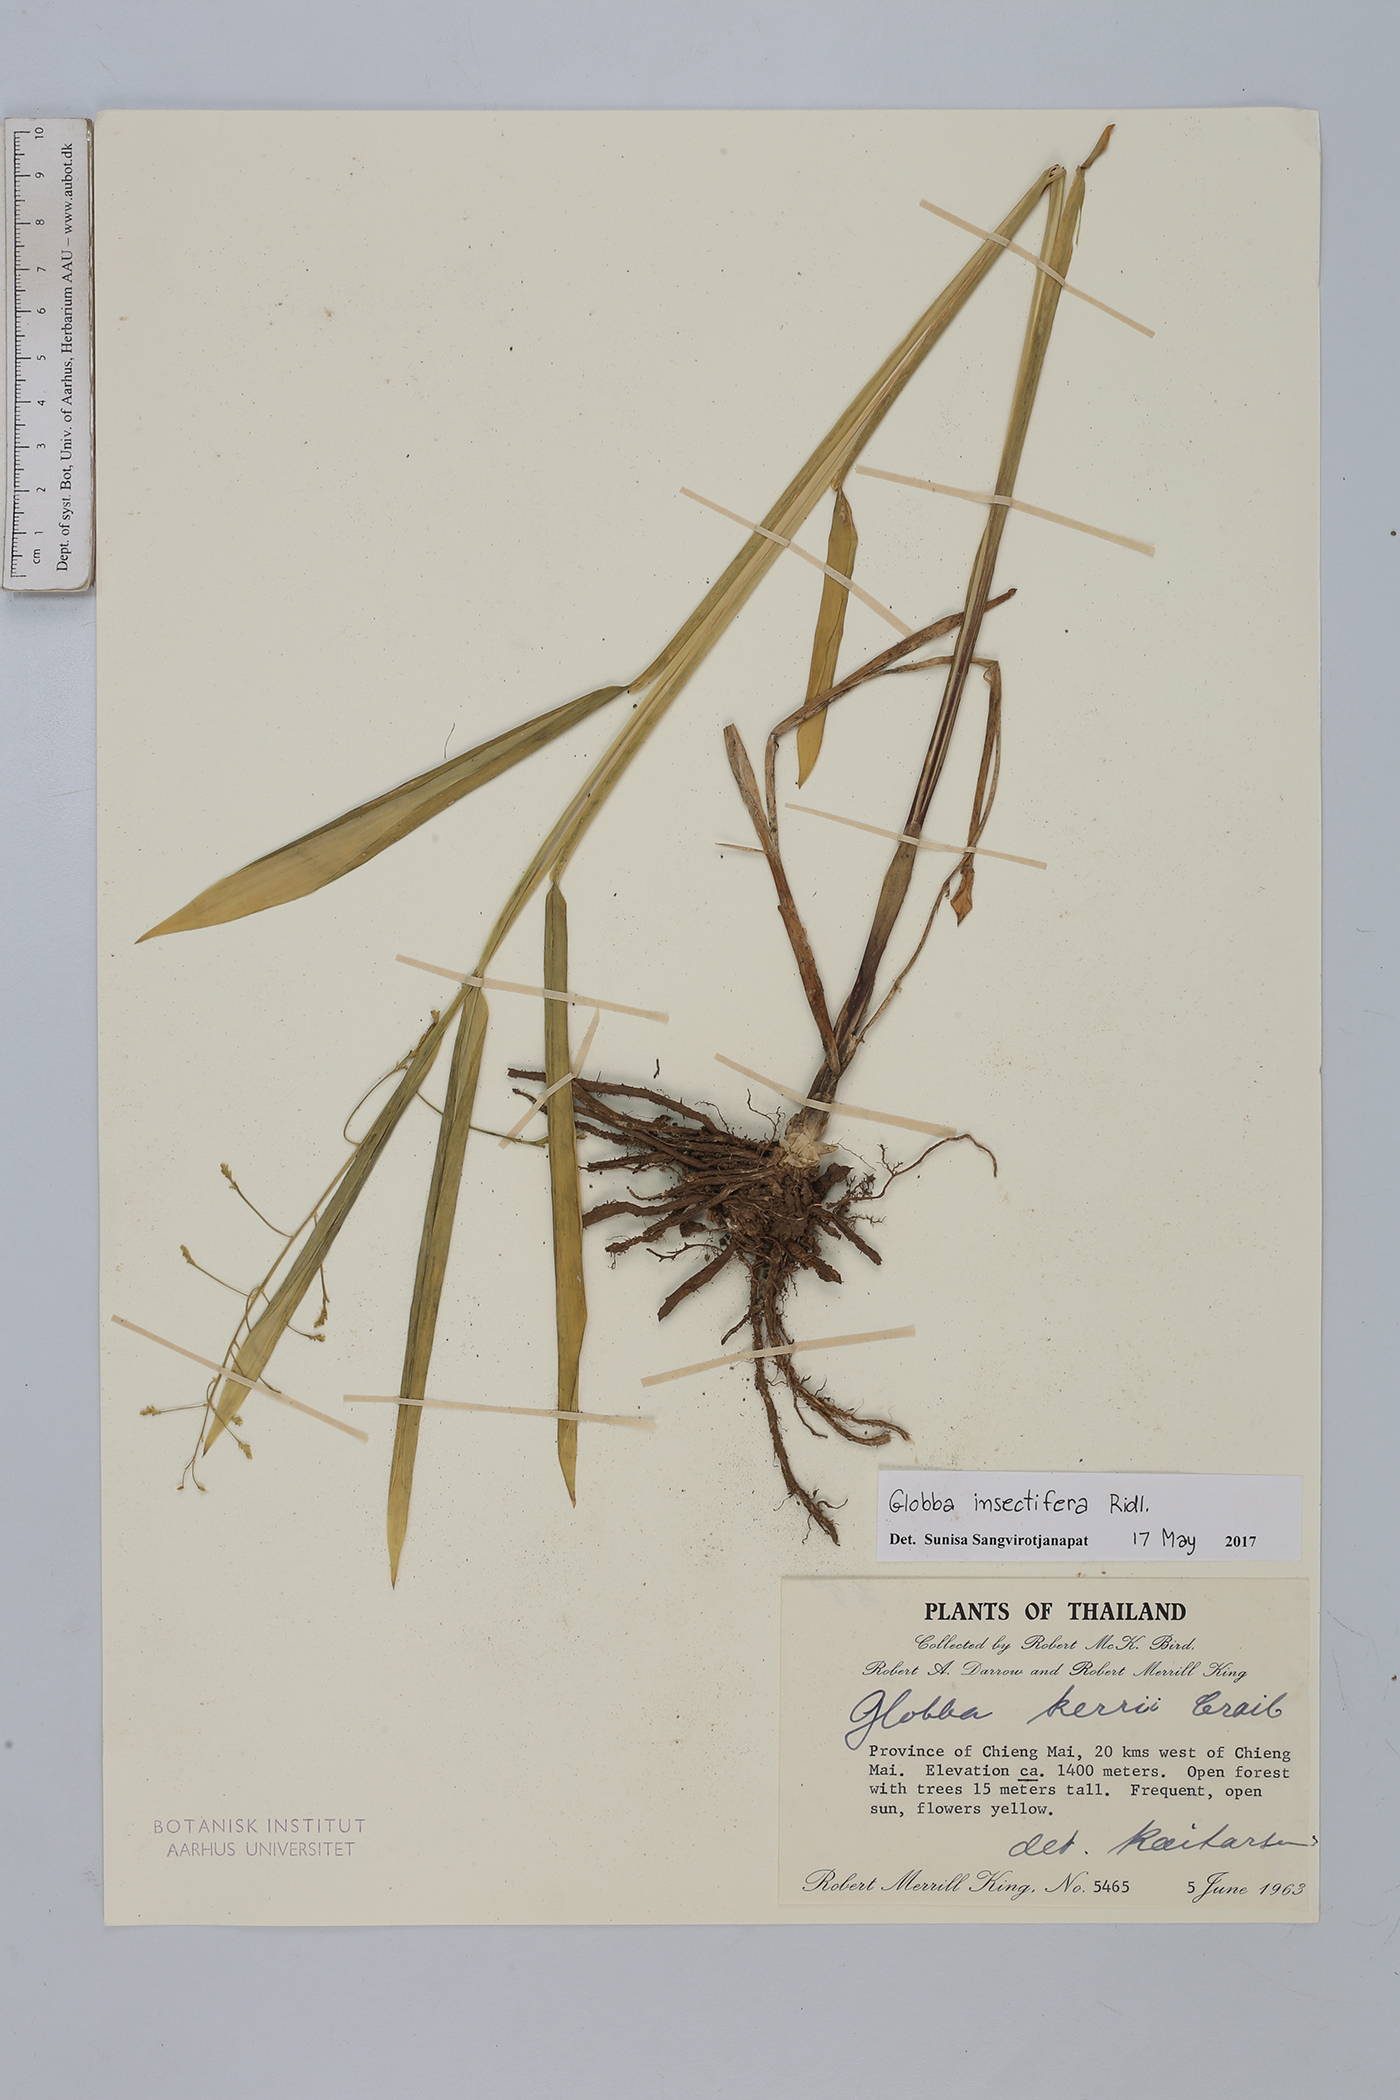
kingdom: Plantae
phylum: Tracheophyta
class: Liliopsida
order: Zingiberales
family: Zingiberaceae
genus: Globba
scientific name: Globba insectifera
